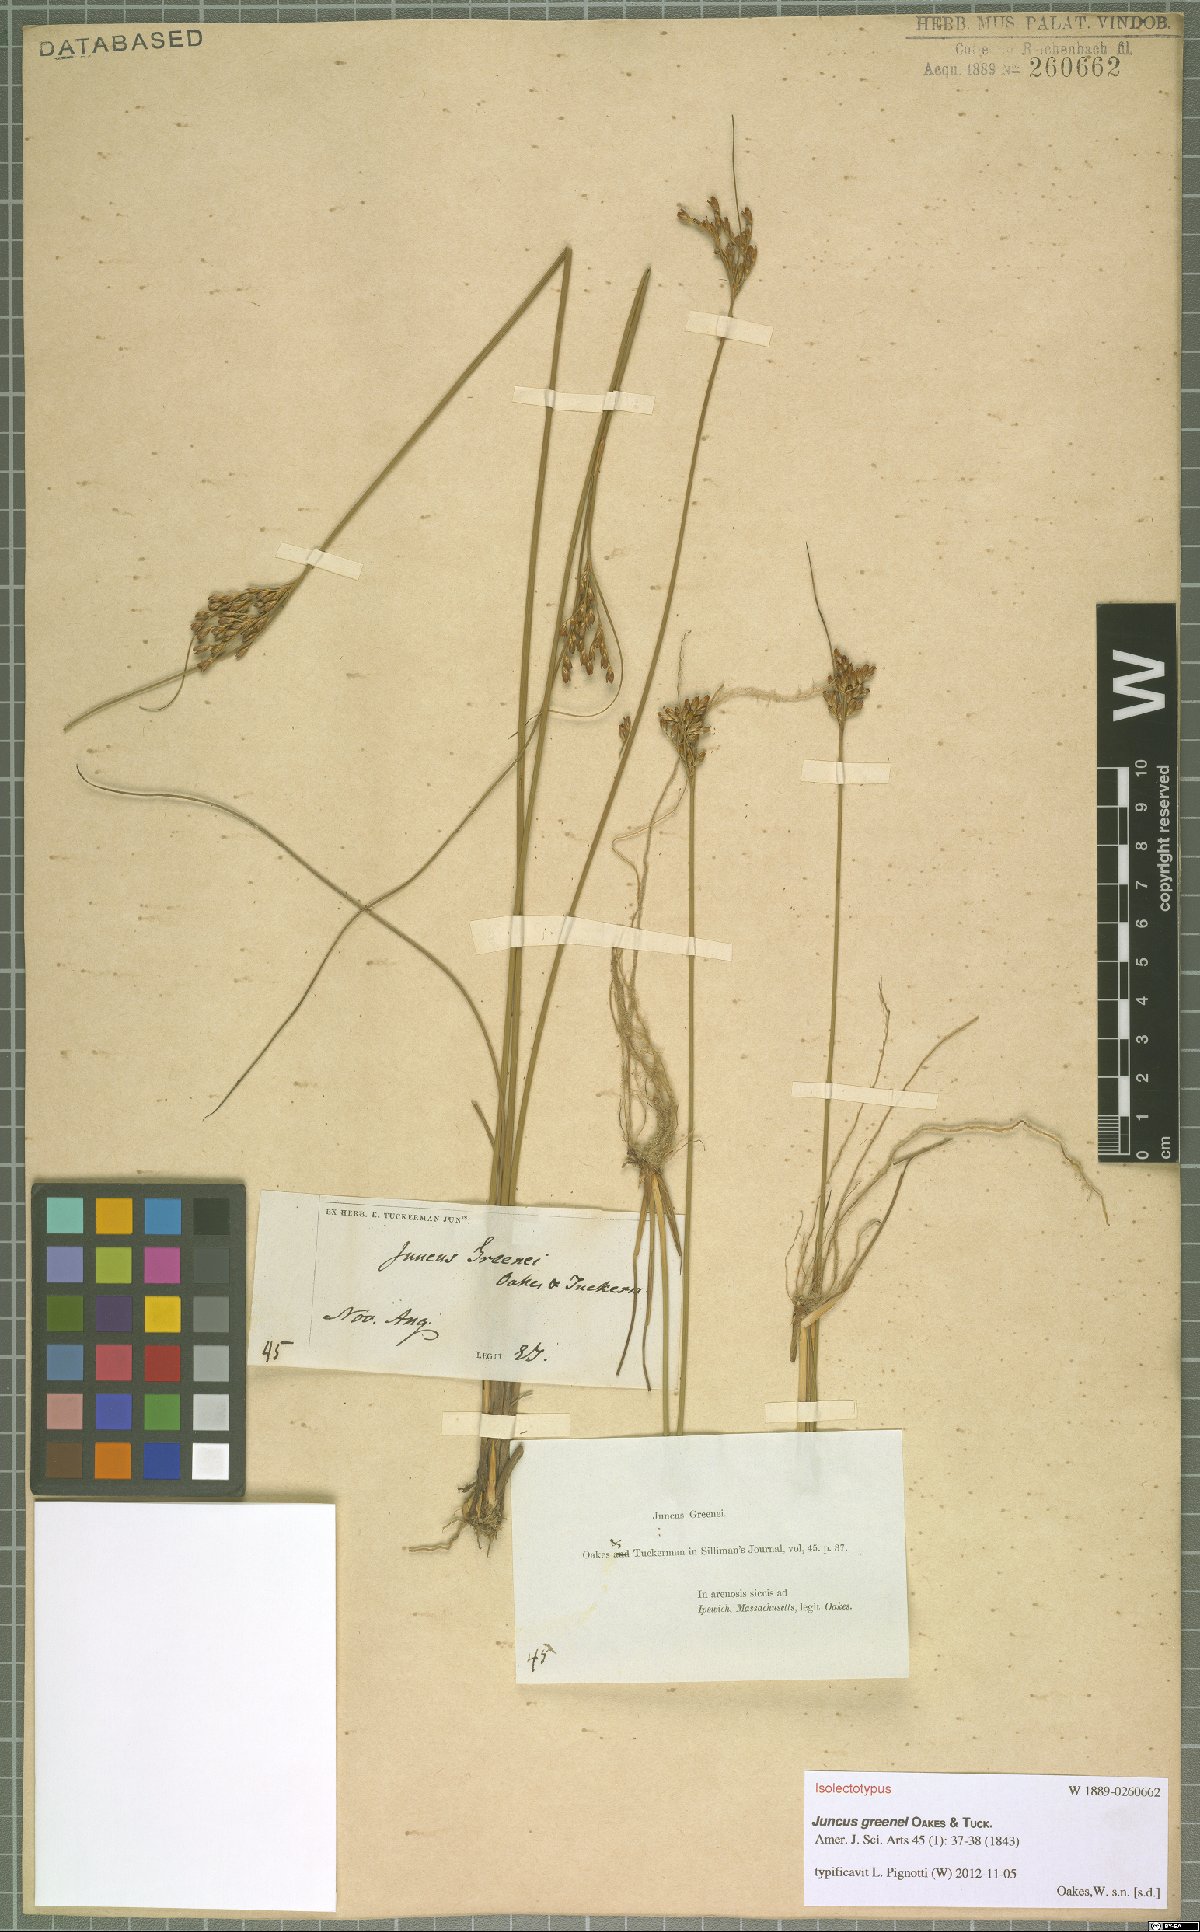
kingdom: Plantae
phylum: Tracheophyta
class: Liliopsida
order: Poales
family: Juncaceae
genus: Juncus
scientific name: Juncus greenei
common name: Greene's rush
